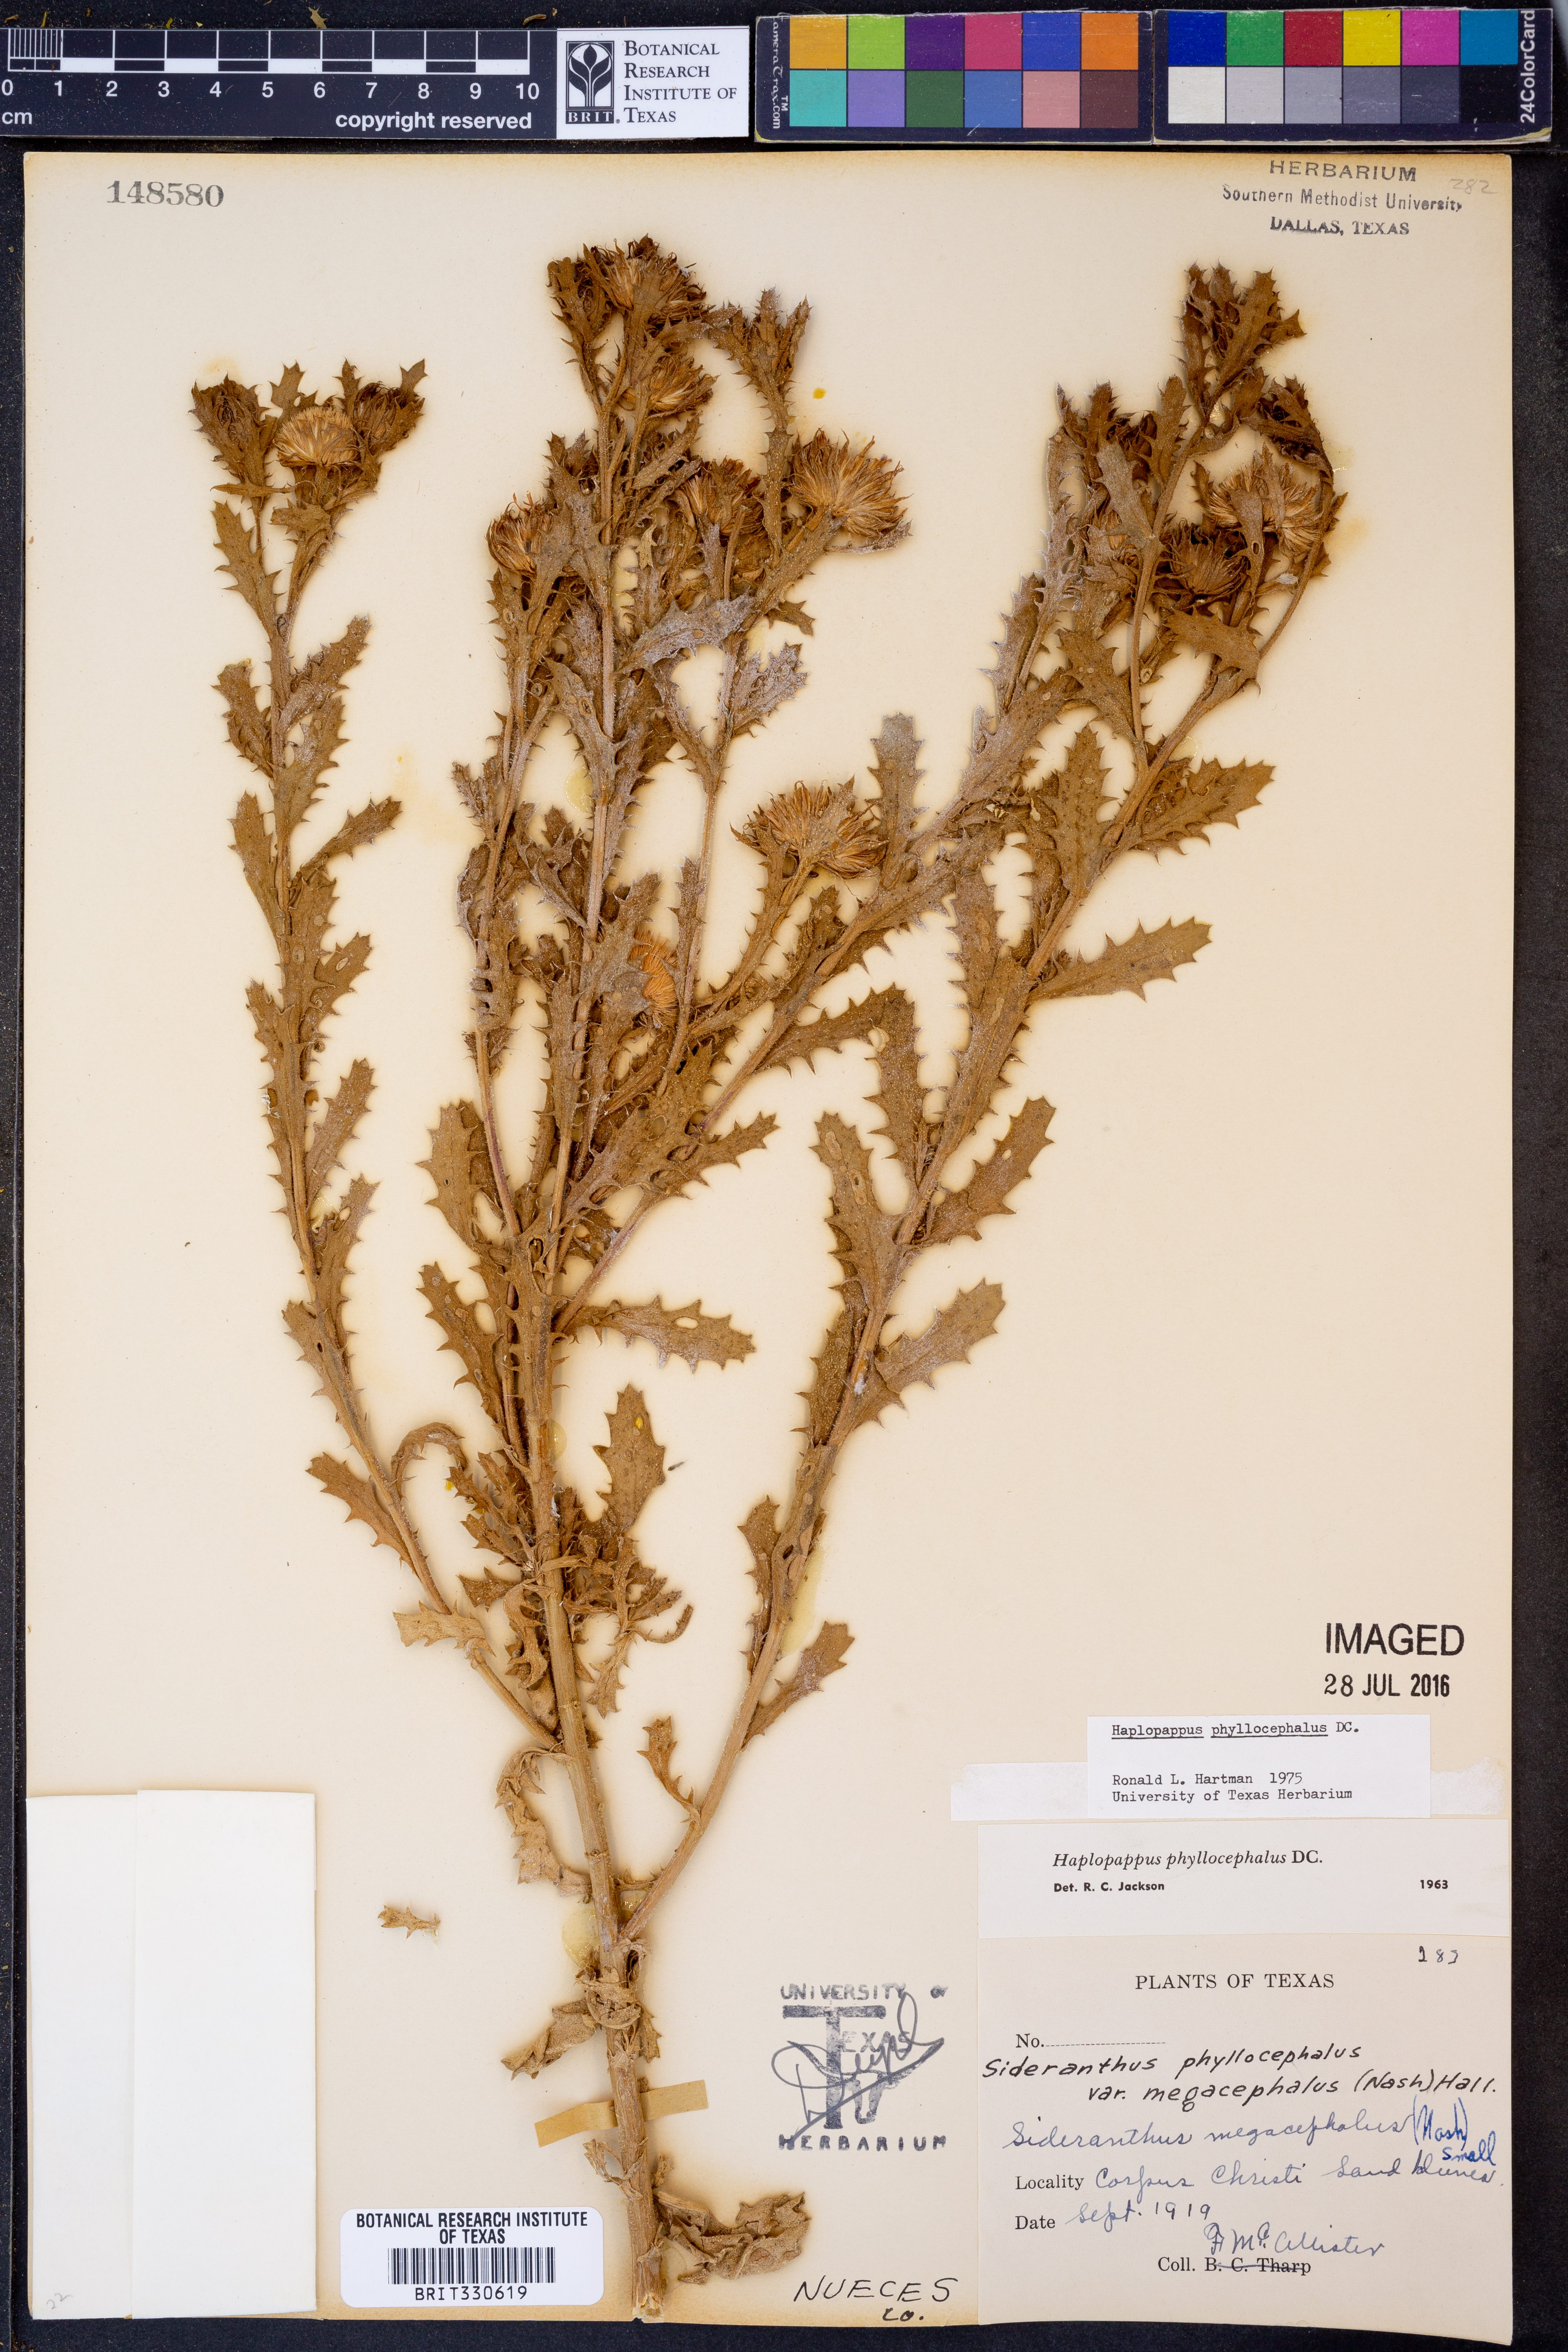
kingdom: Plantae
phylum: Tracheophyta
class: Magnoliopsida
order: Asterales
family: Asteraceae
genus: Rayjacksonia
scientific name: Rayjacksonia phyllocephala
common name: Gulf coast camphor daisy
